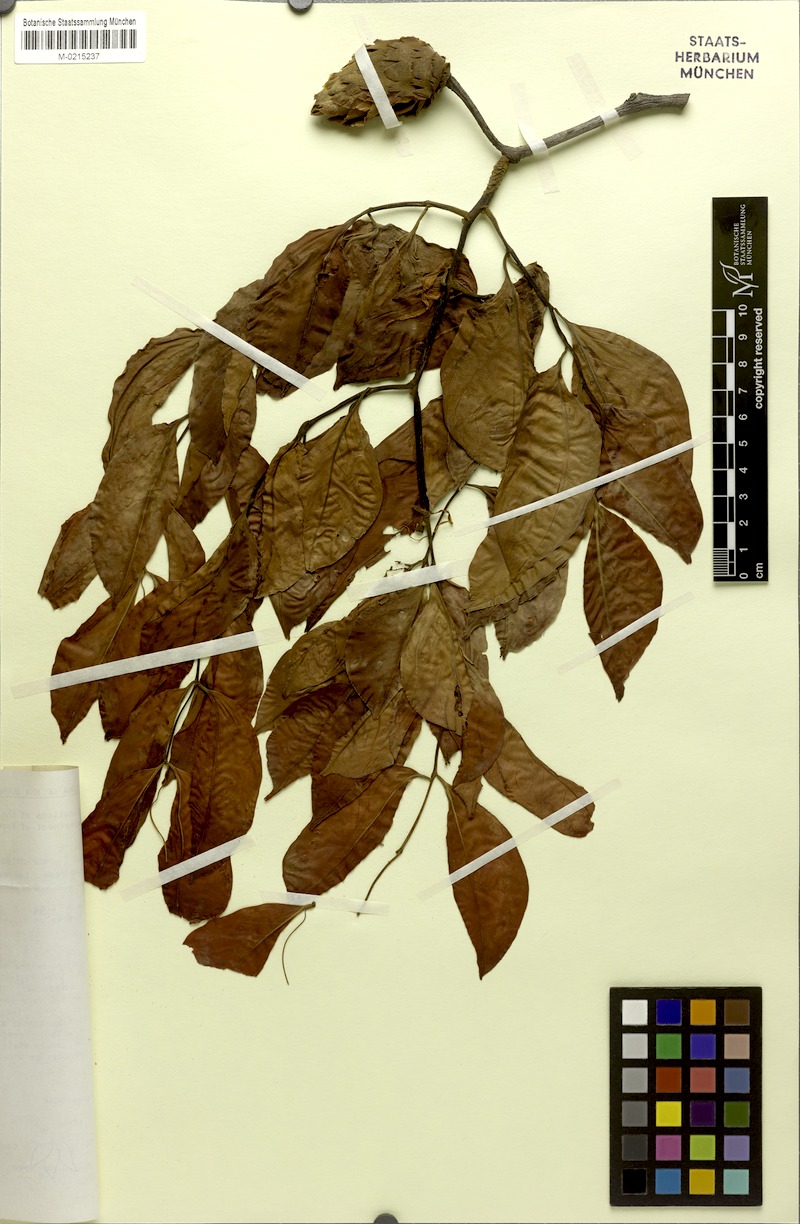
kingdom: Plantae
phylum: Tracheophyta
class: Magnoliopsida
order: Fabales
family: Fabaceae
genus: Cynometra
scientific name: Cynometra lenticellata
